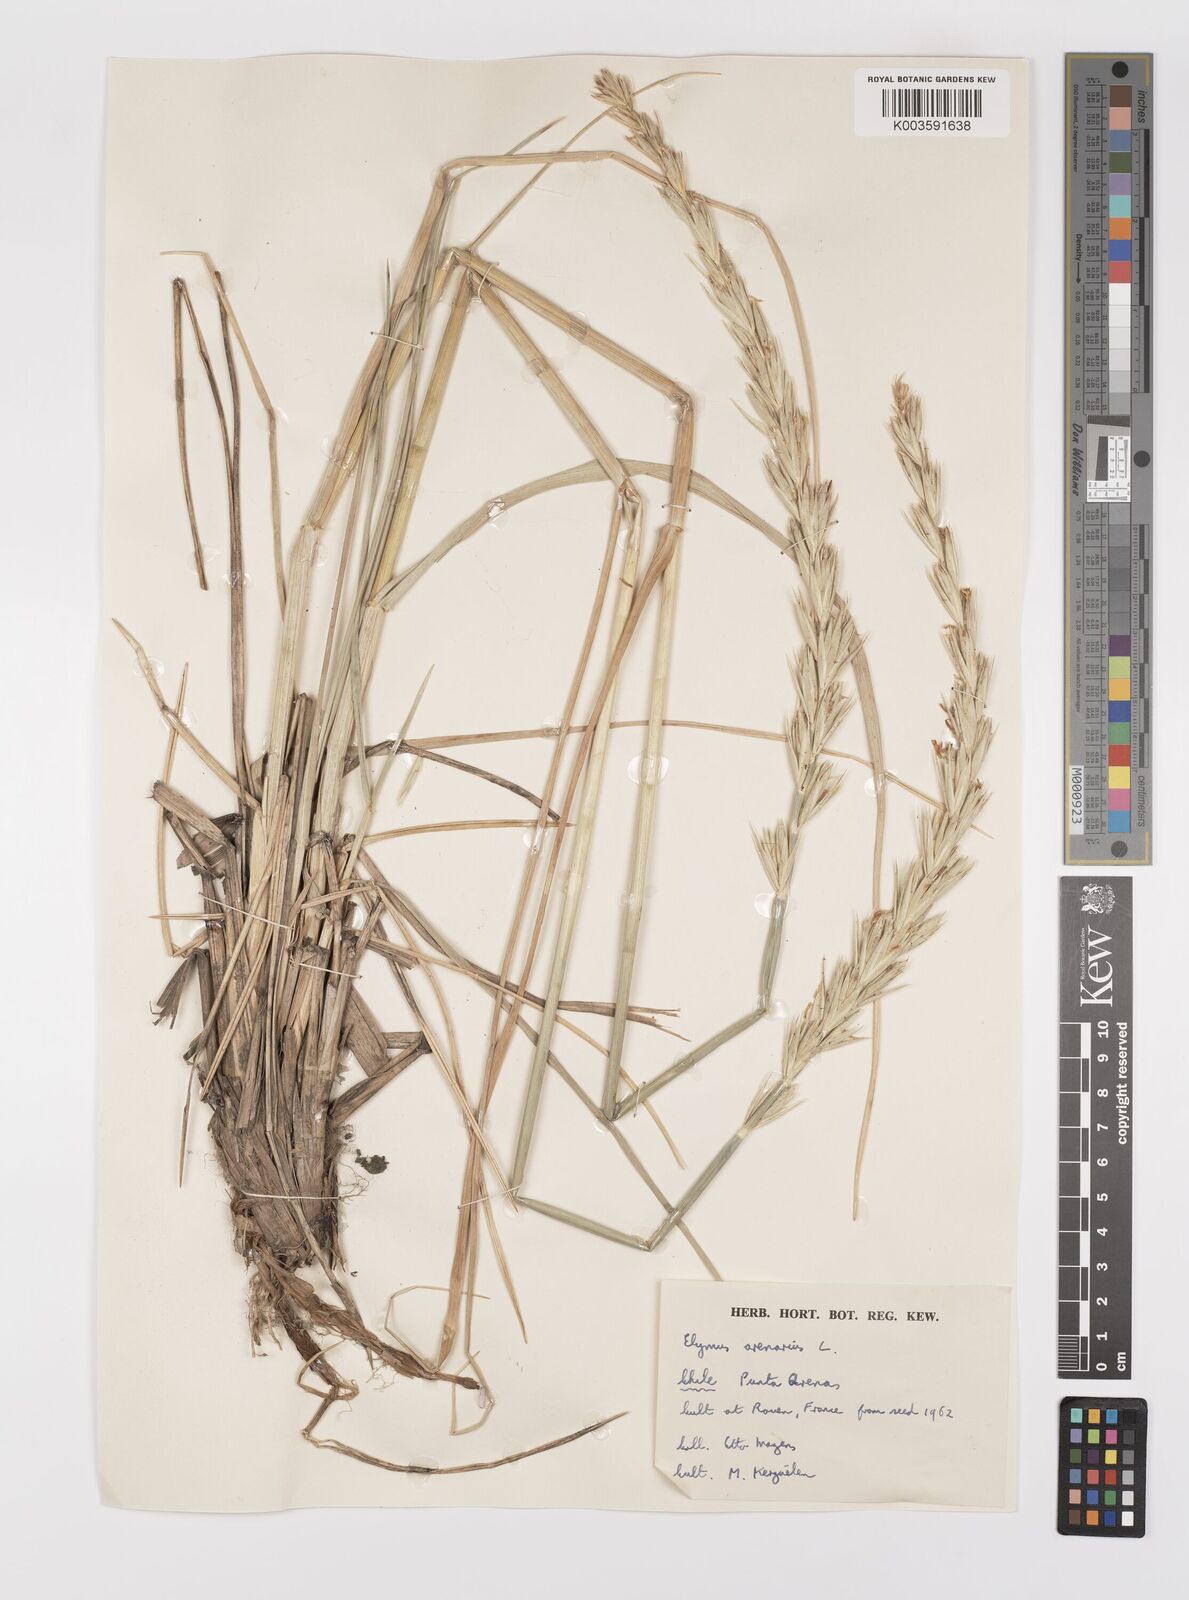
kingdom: Plantae
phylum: Tracheophyta
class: Liliopsida
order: Poales
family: Poaceae
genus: Leymus
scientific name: Leymus arenarius
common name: Lyme-grass
